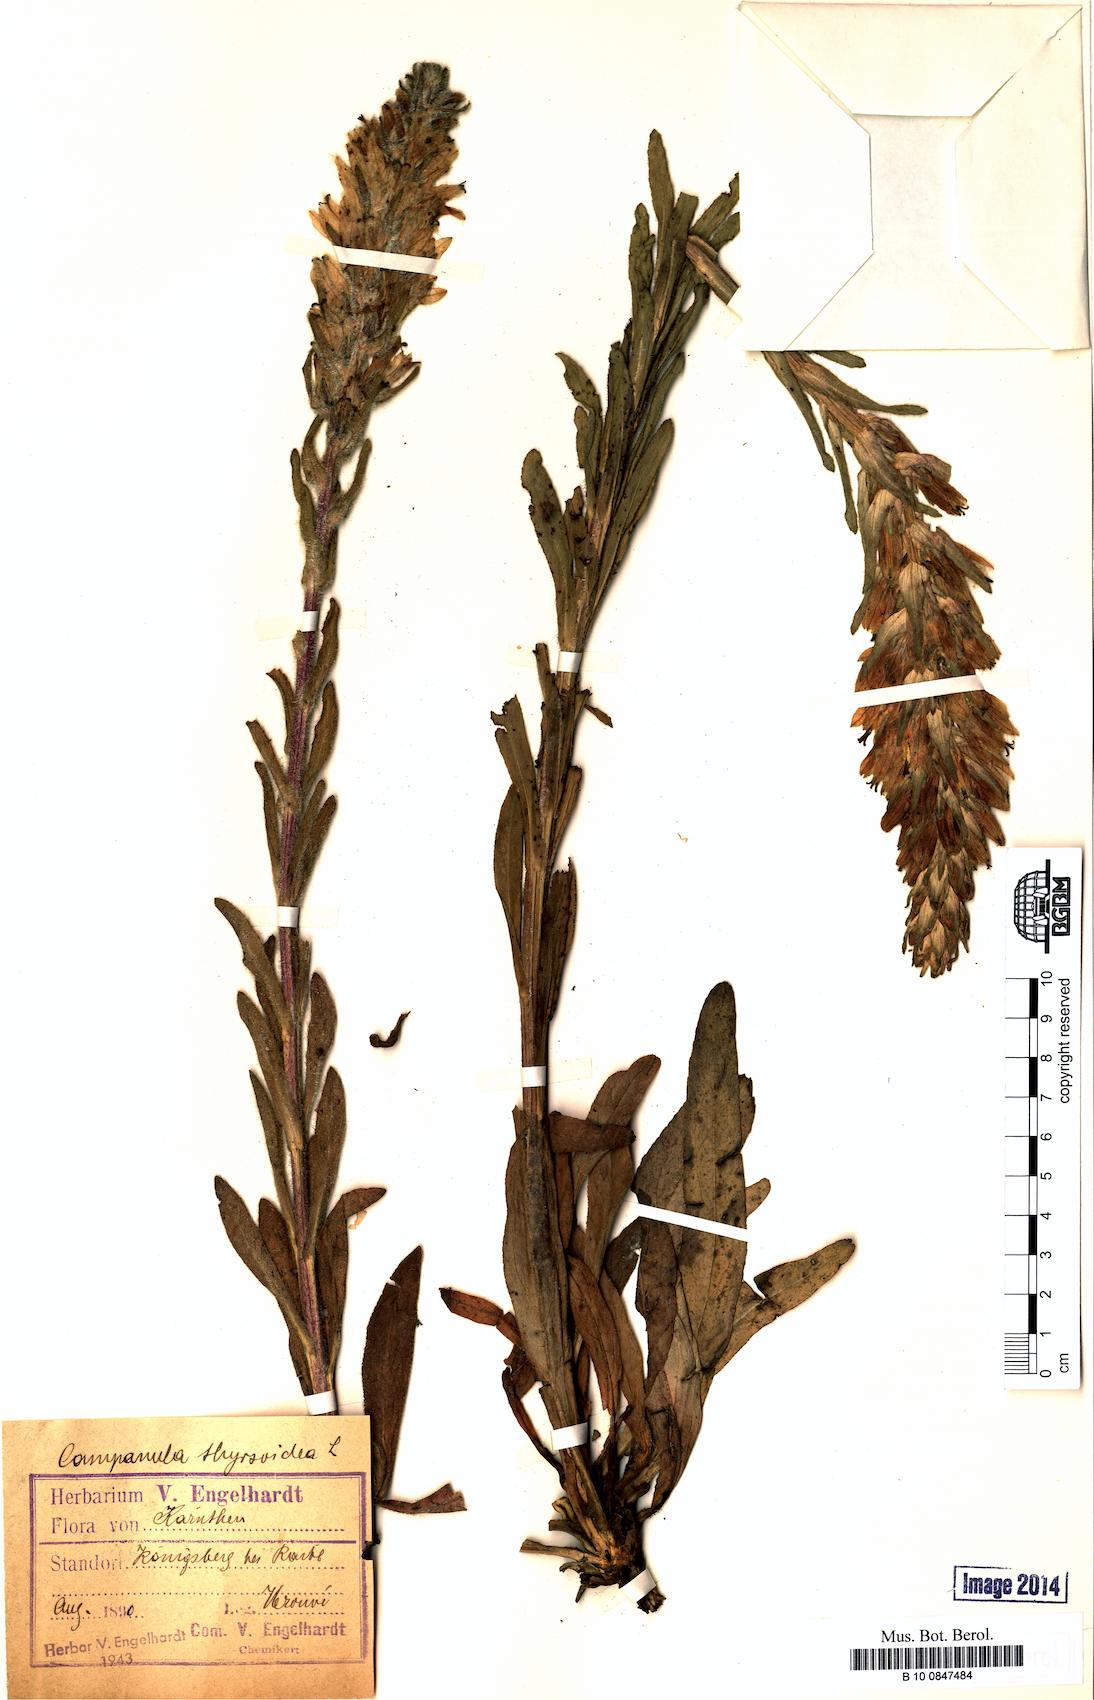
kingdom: Plantae
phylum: Tracheophyta
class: Magnoliopsida
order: Asterales
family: Campanulaceae
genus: Campanula
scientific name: Campanula thyrsoides
